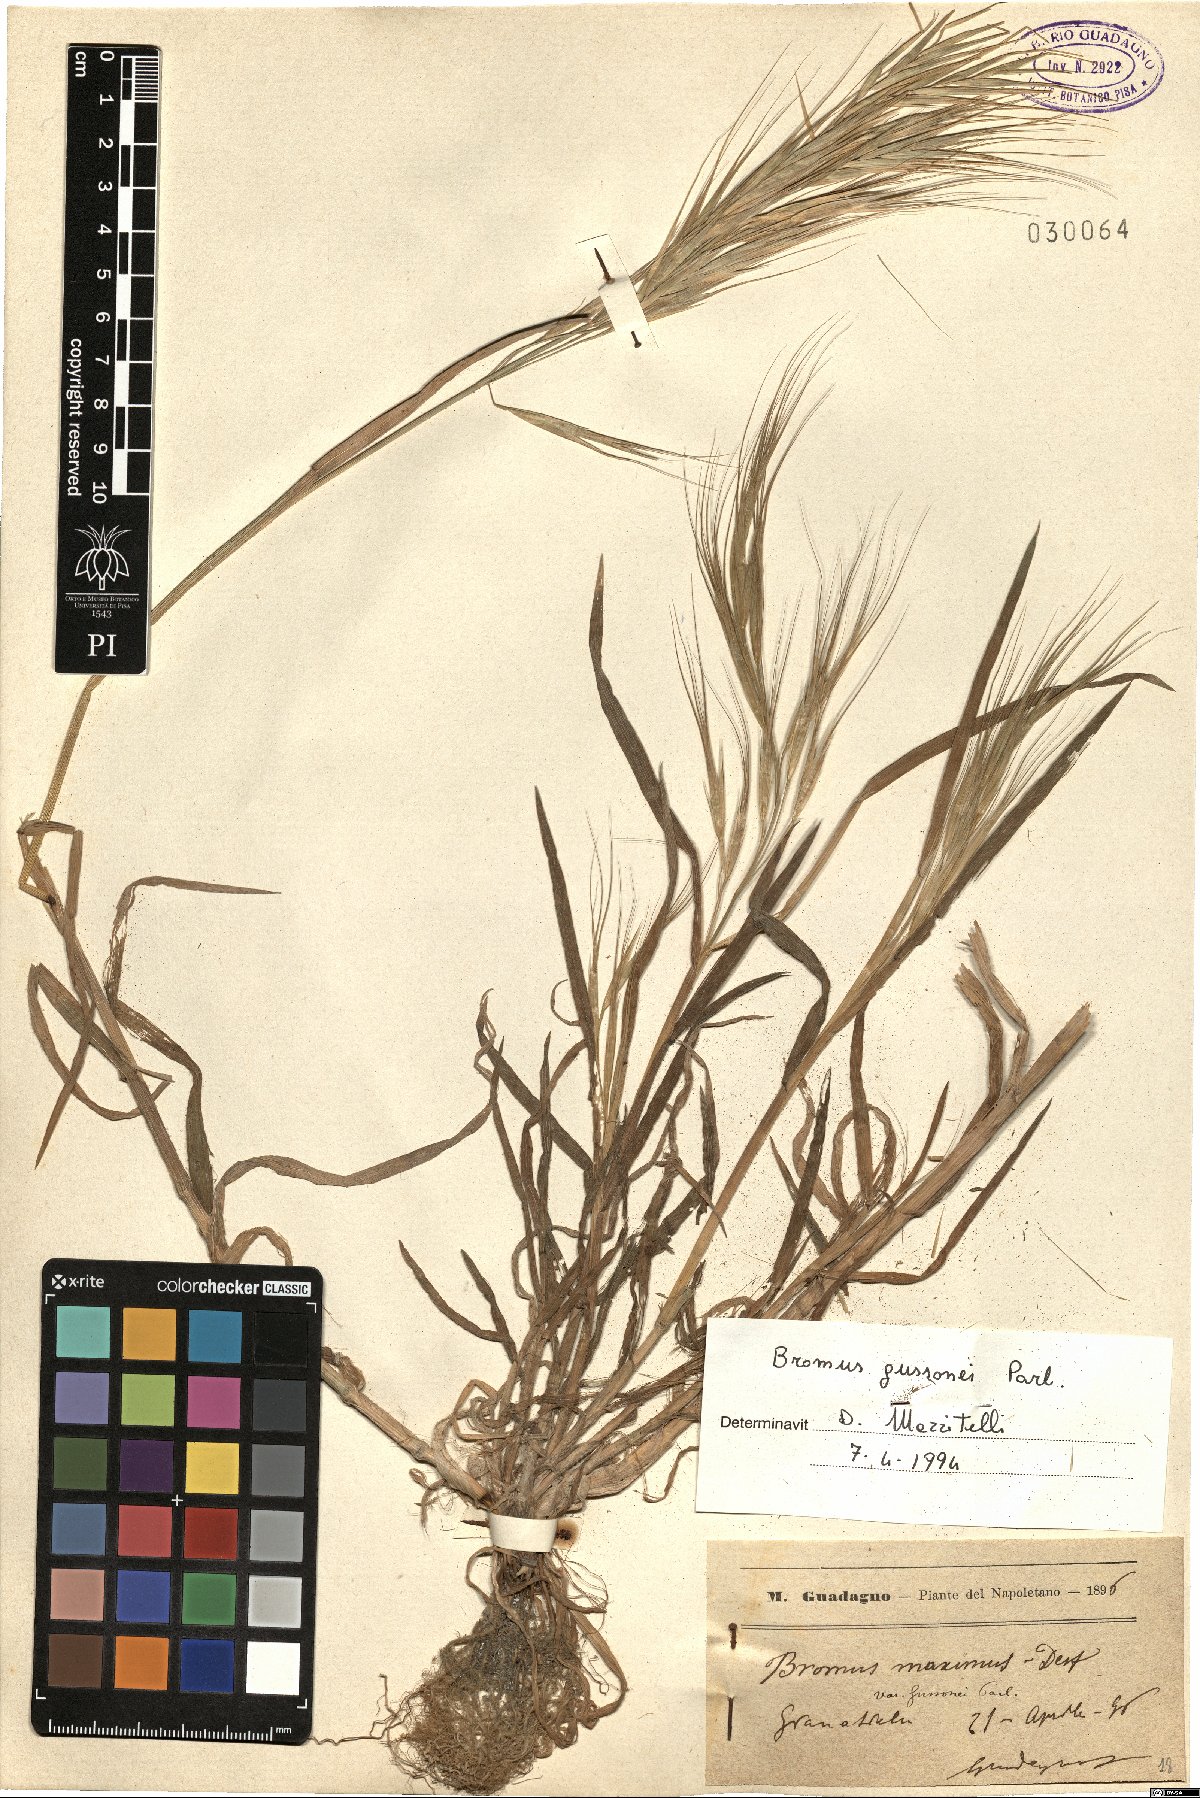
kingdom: Plantae
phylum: Tracheophyta
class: Liliopsida
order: Poales
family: Poaceae
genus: Bromus
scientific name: Bromus diandrus
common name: Ripgut brome
